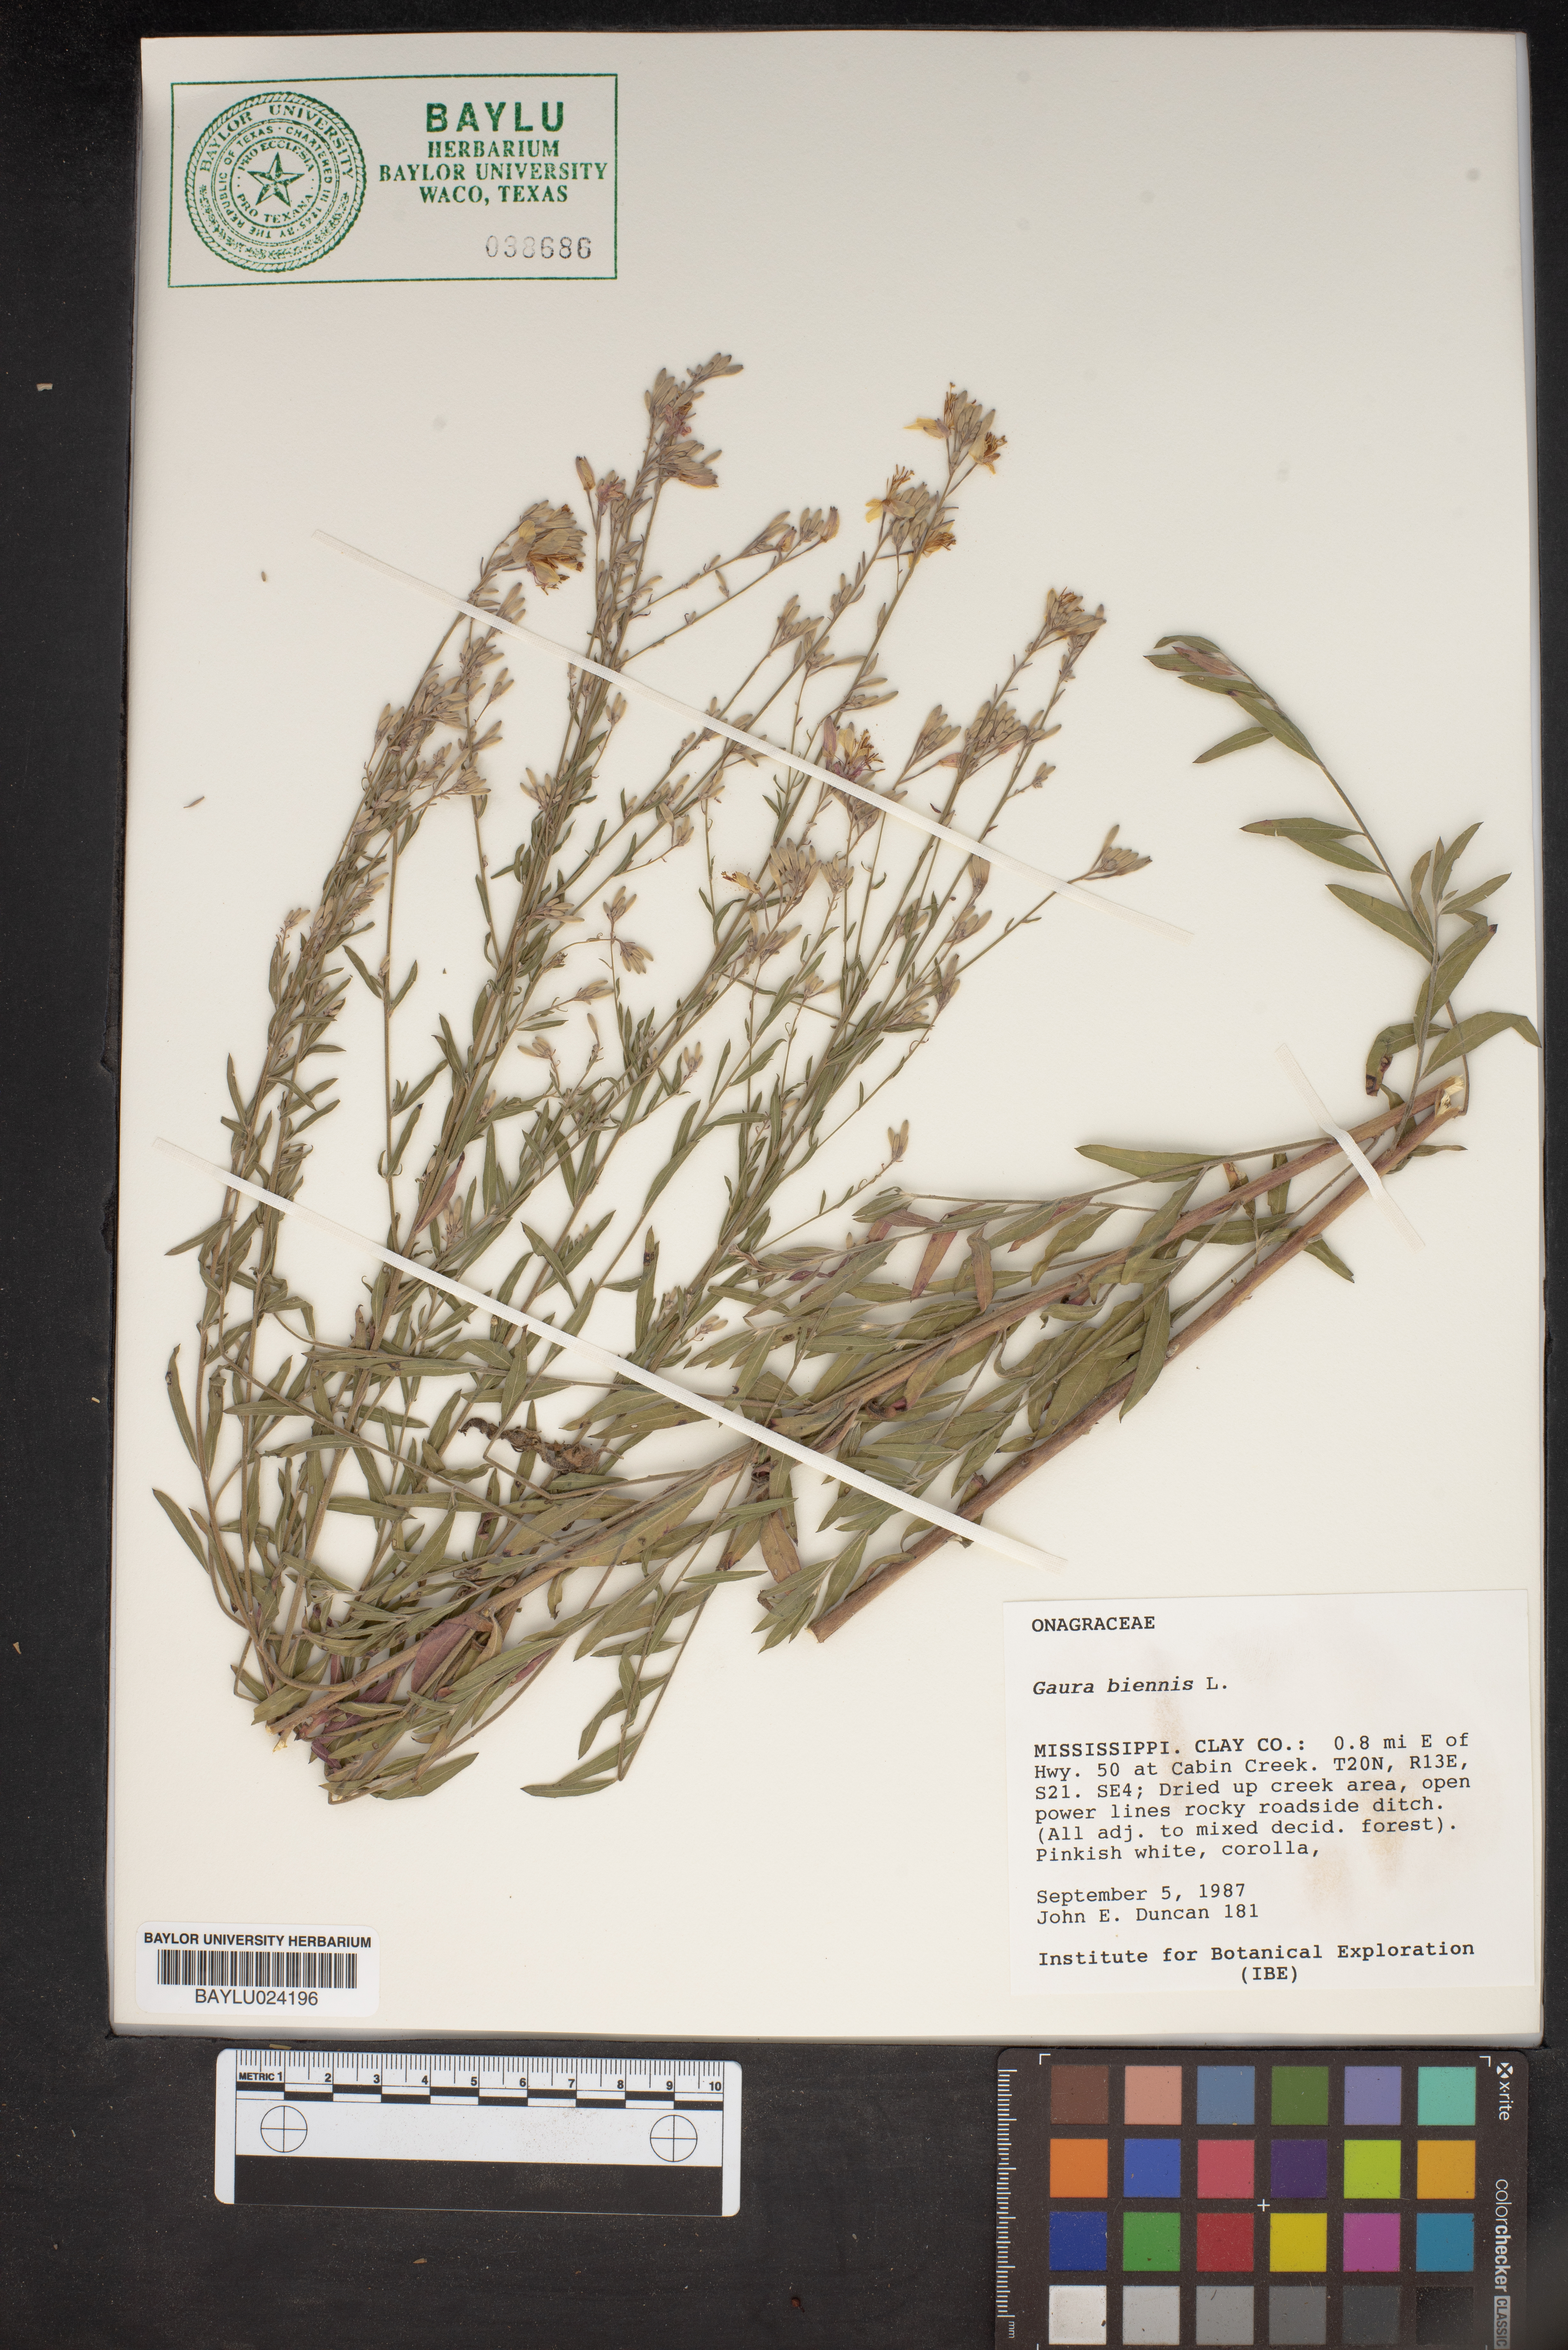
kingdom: Plantae
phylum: Tracheophyta
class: Magnoliopsida
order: Myrtales
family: Onagraceae
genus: Oenothera
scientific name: Oenothera gaura
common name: Biennial beeblossom
